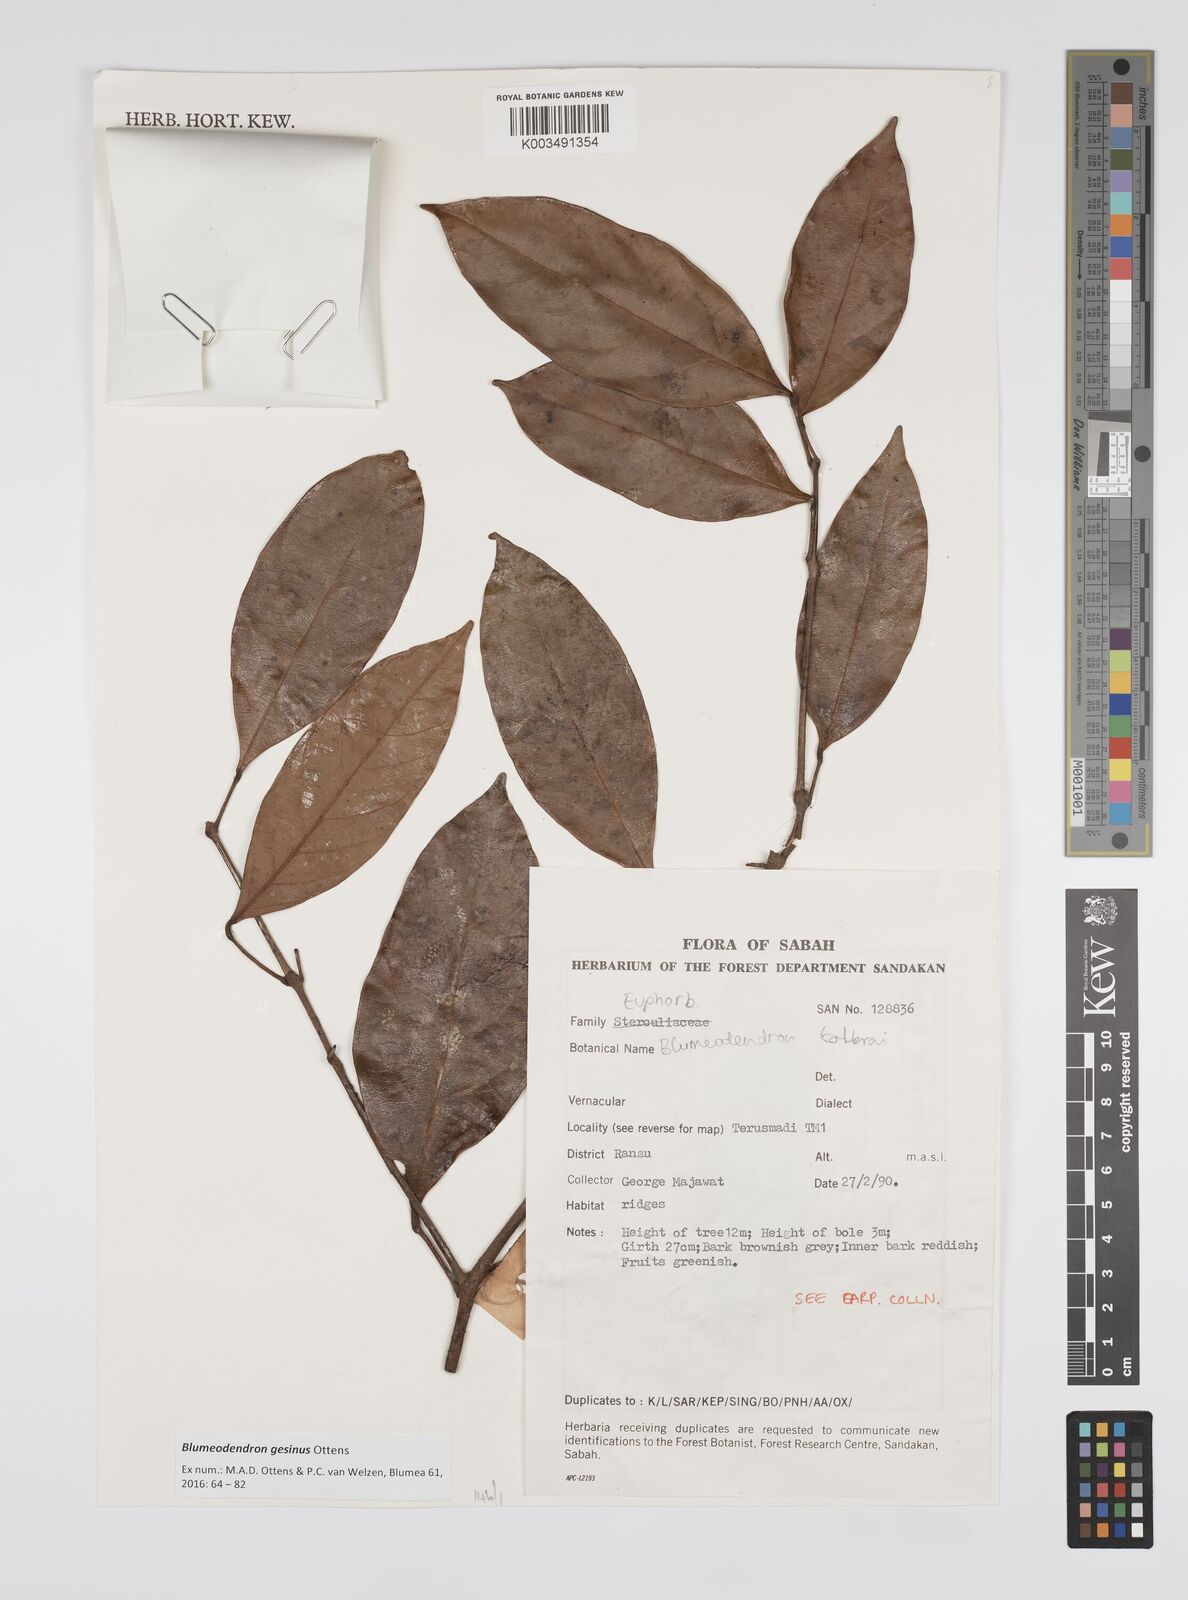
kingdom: Plantae
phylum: Tracheophyta
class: Magnoliopsida
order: Malpighiales
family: Euphorbiaceae
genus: Blumeodendron
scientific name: Blumeodendron gesinus
